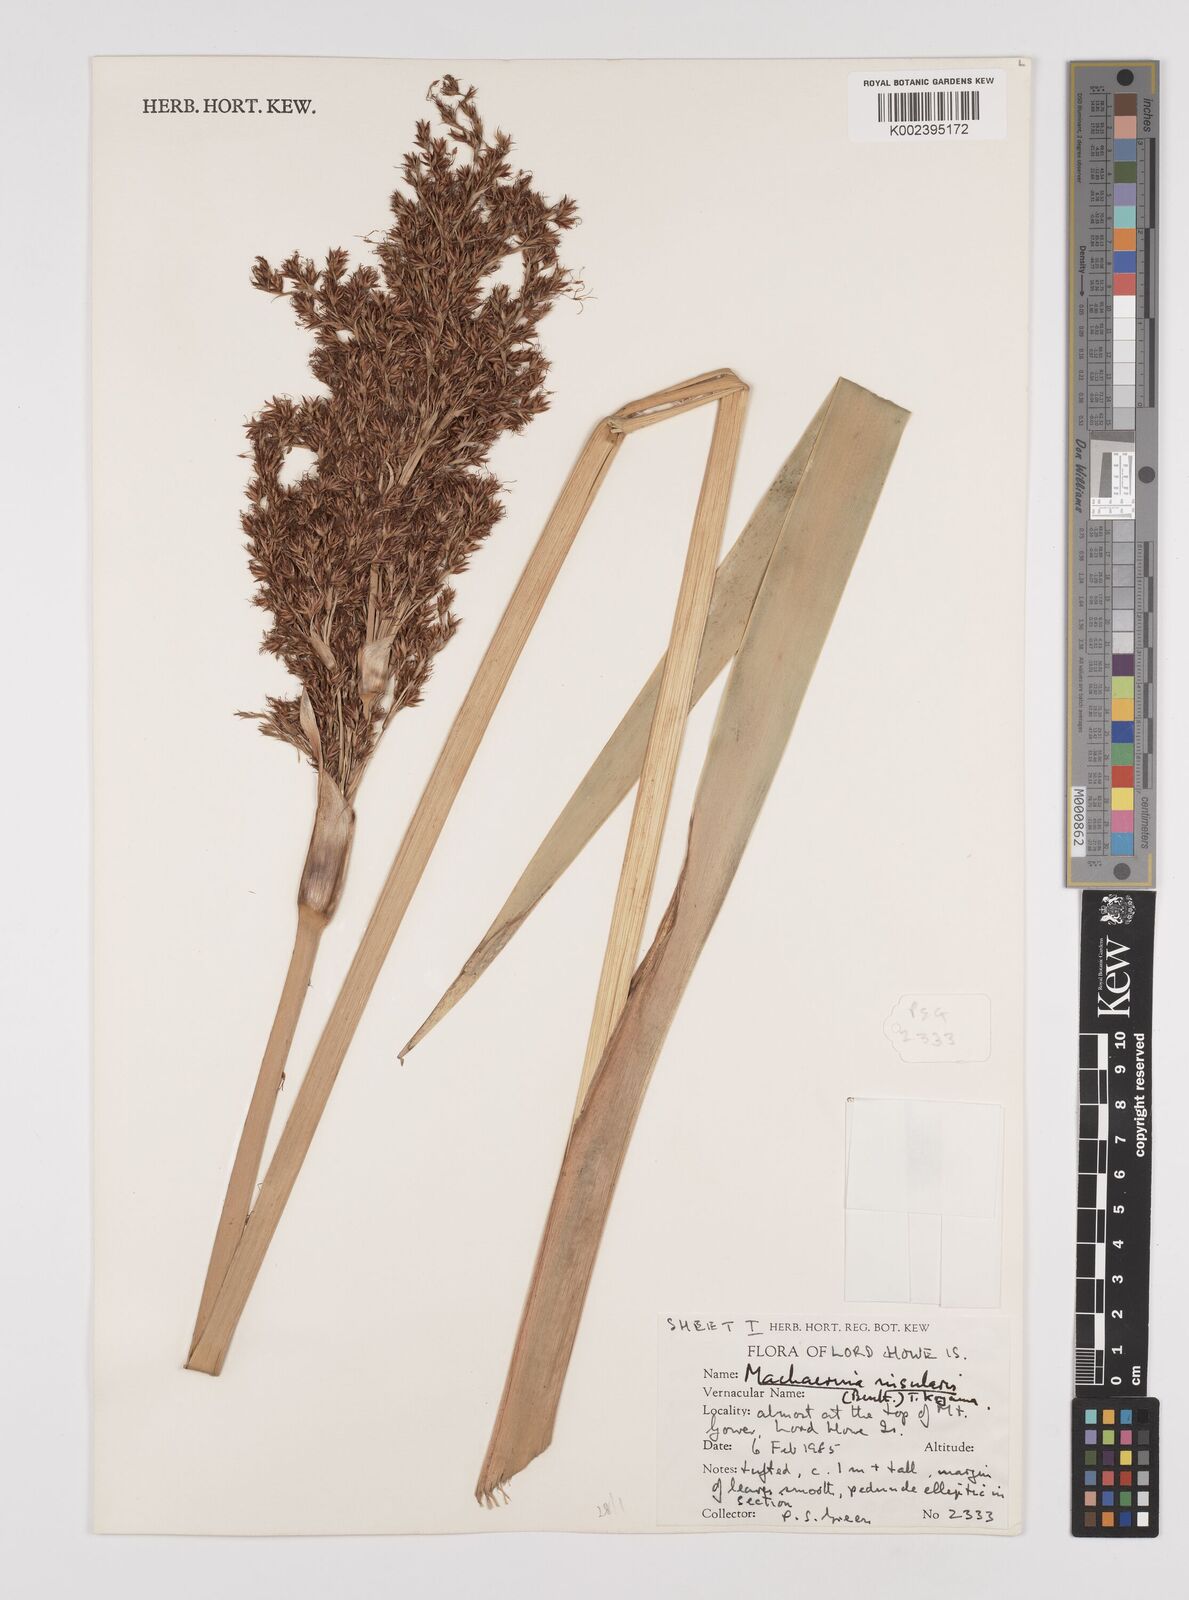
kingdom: Plantae
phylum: Tracheophyta
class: Liliopsida
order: Poales
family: Cyperaceae
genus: Machaerina
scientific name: Machaerina insularis
